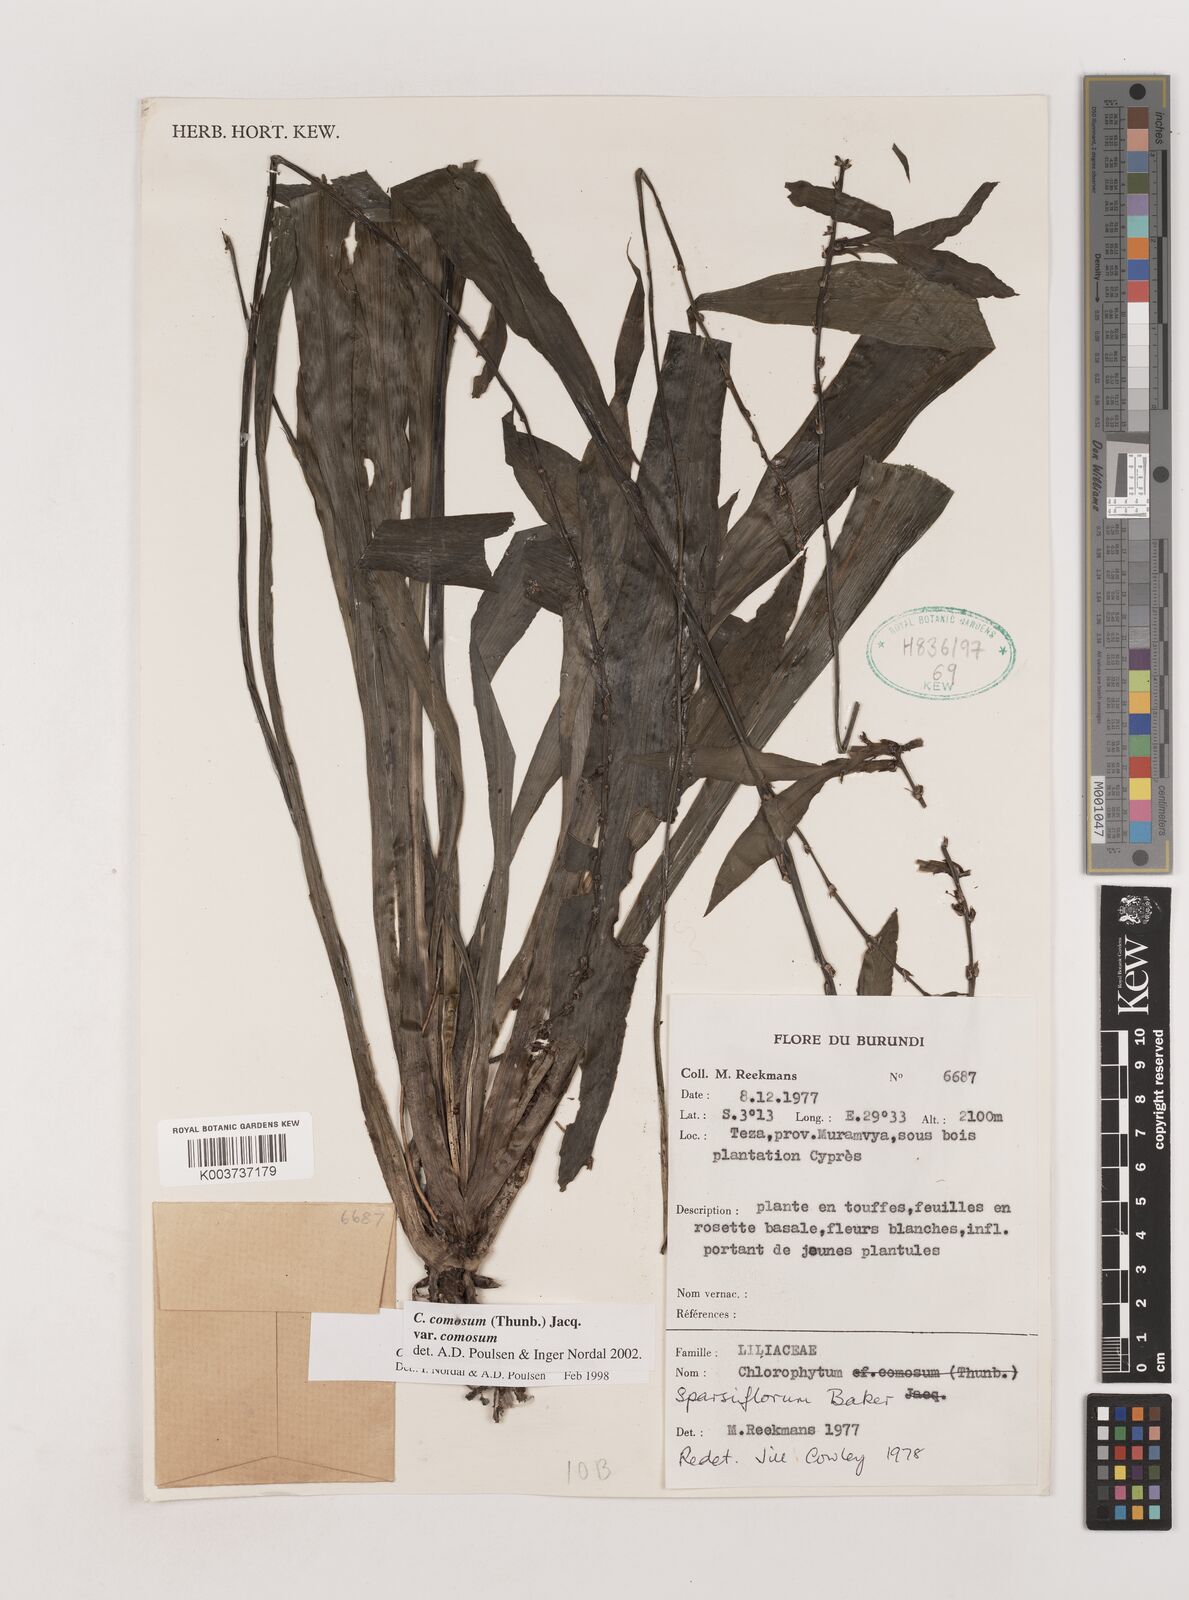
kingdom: Plantae
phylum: Tracheophyta
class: Liliopsida
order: Asparagales
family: Asparagaceae
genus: Chlorophytum
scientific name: Chlorophytum comosum
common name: Spider plant
